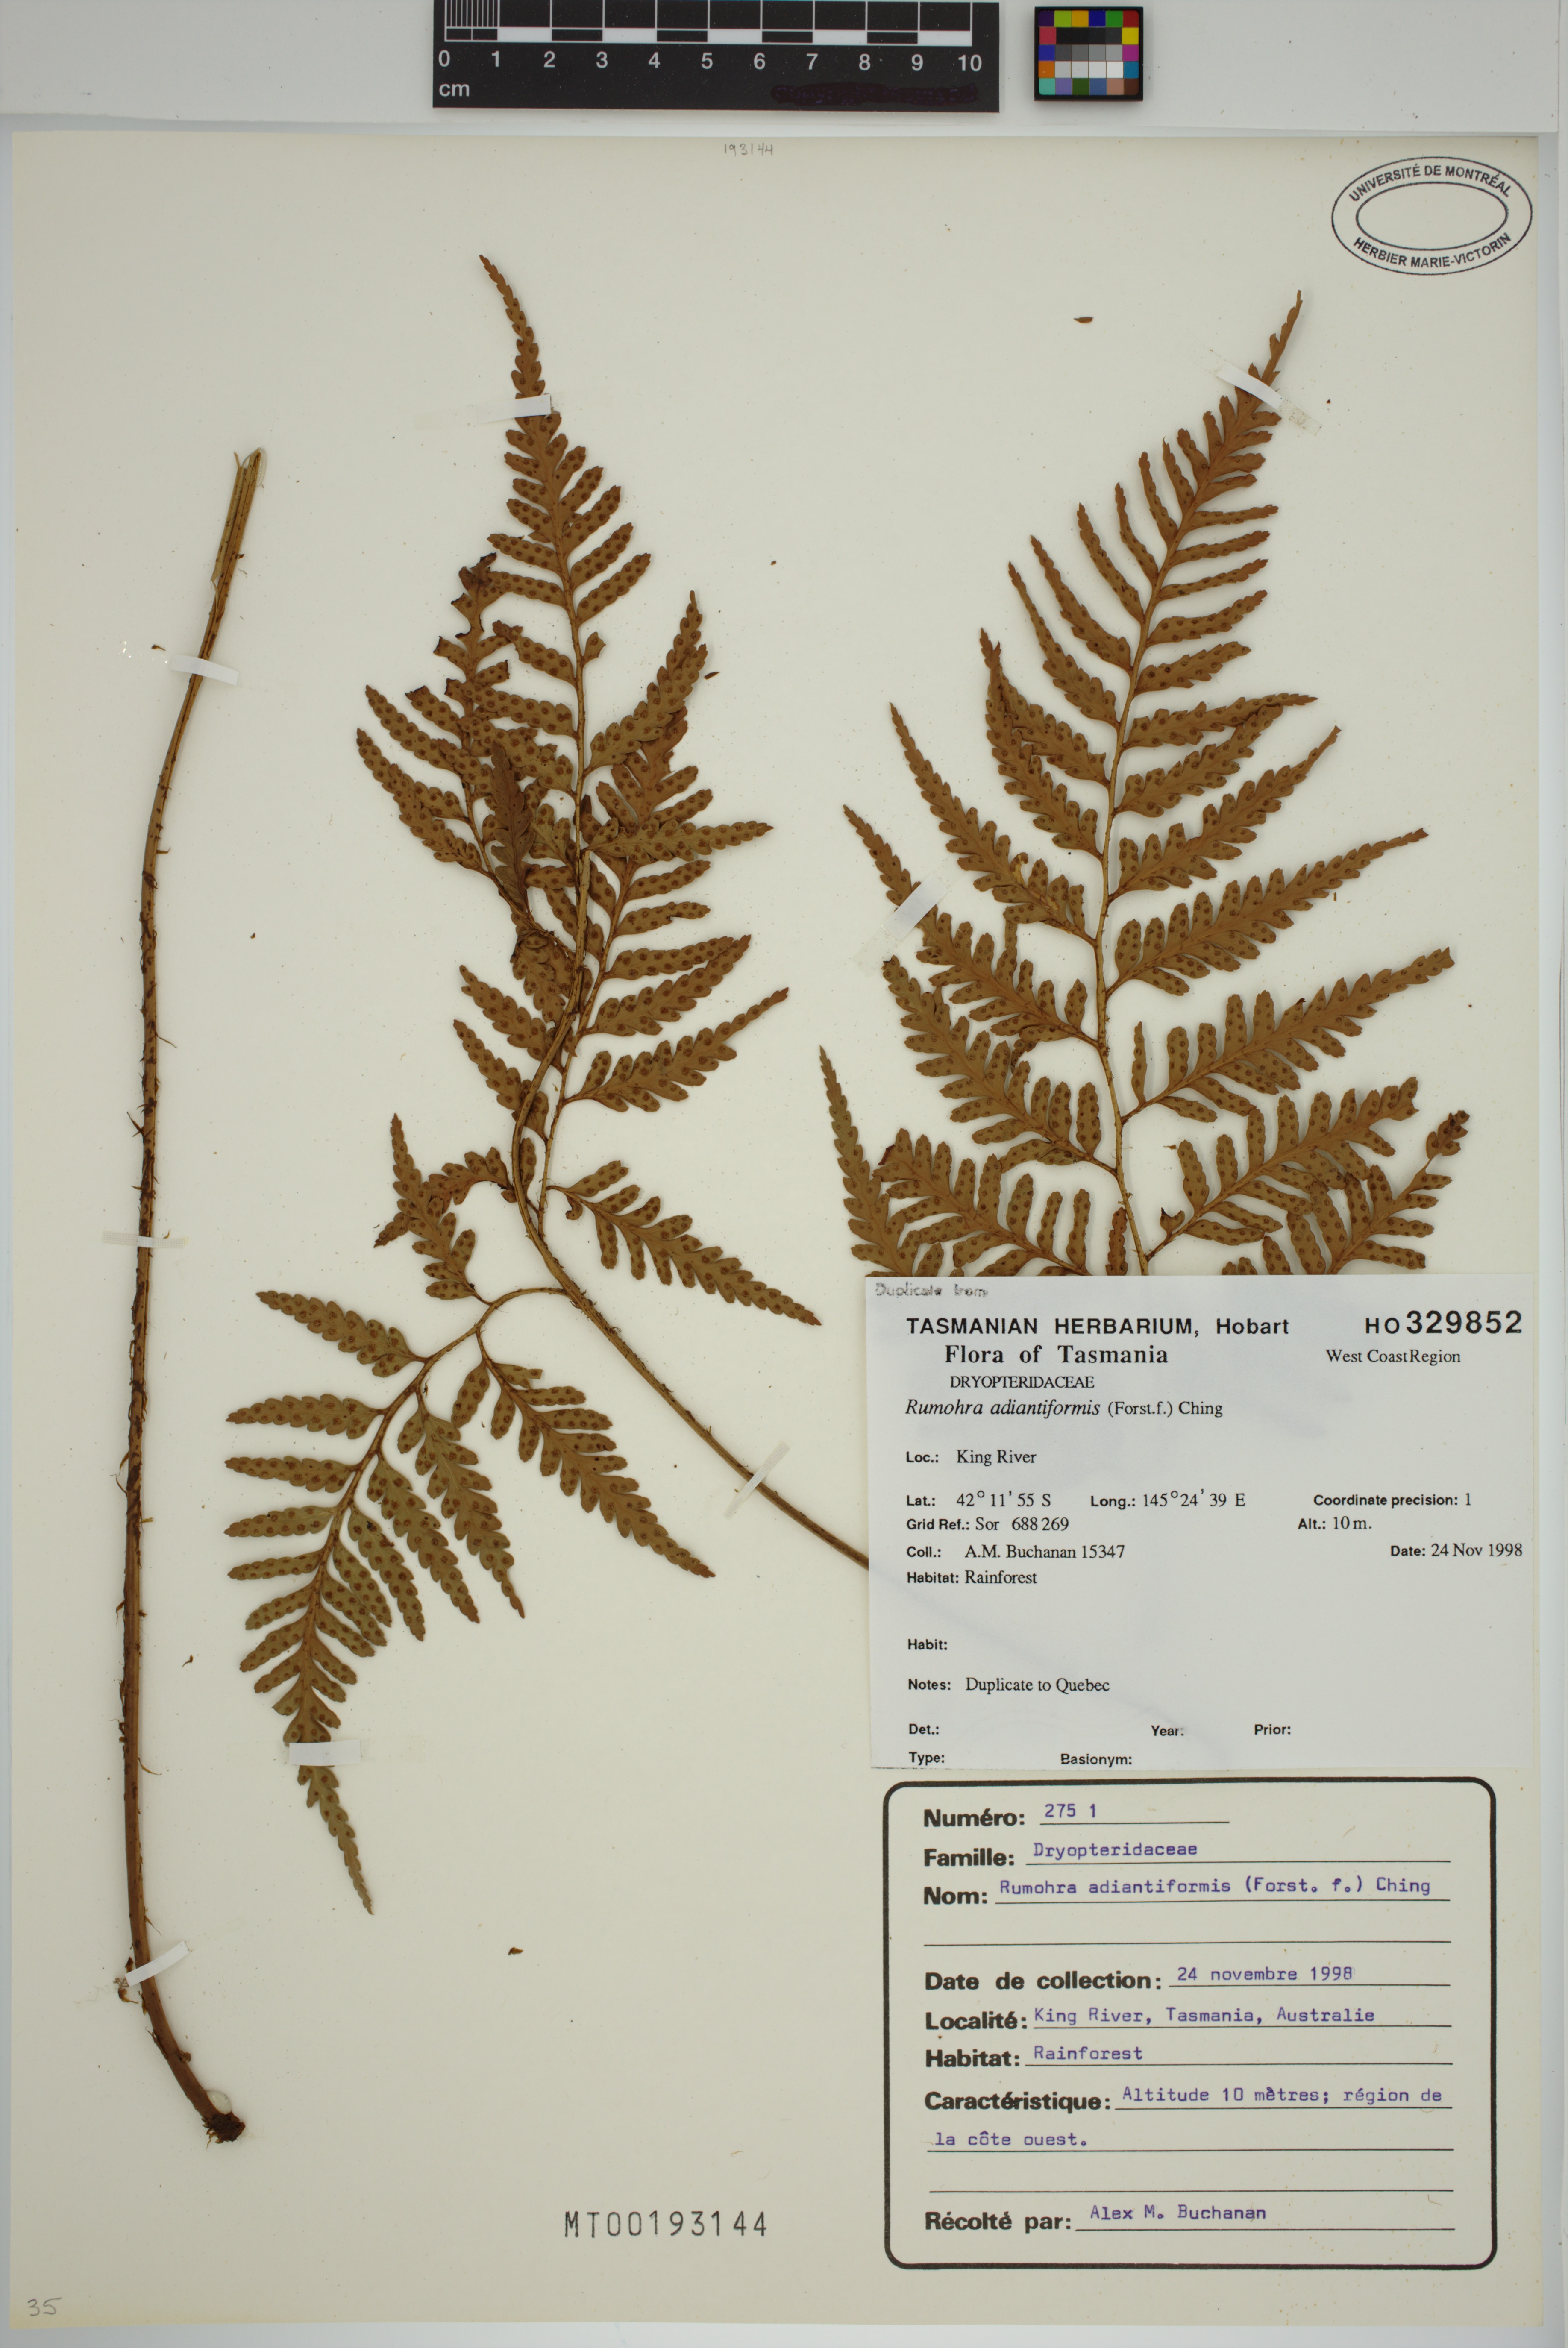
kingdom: Plantae
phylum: Tracheophyta
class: Polypodiopsida
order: Polypodiales
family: Dryopteridaceae
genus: Rumohra
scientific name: Rumohra adiantiformis
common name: Leather fern
